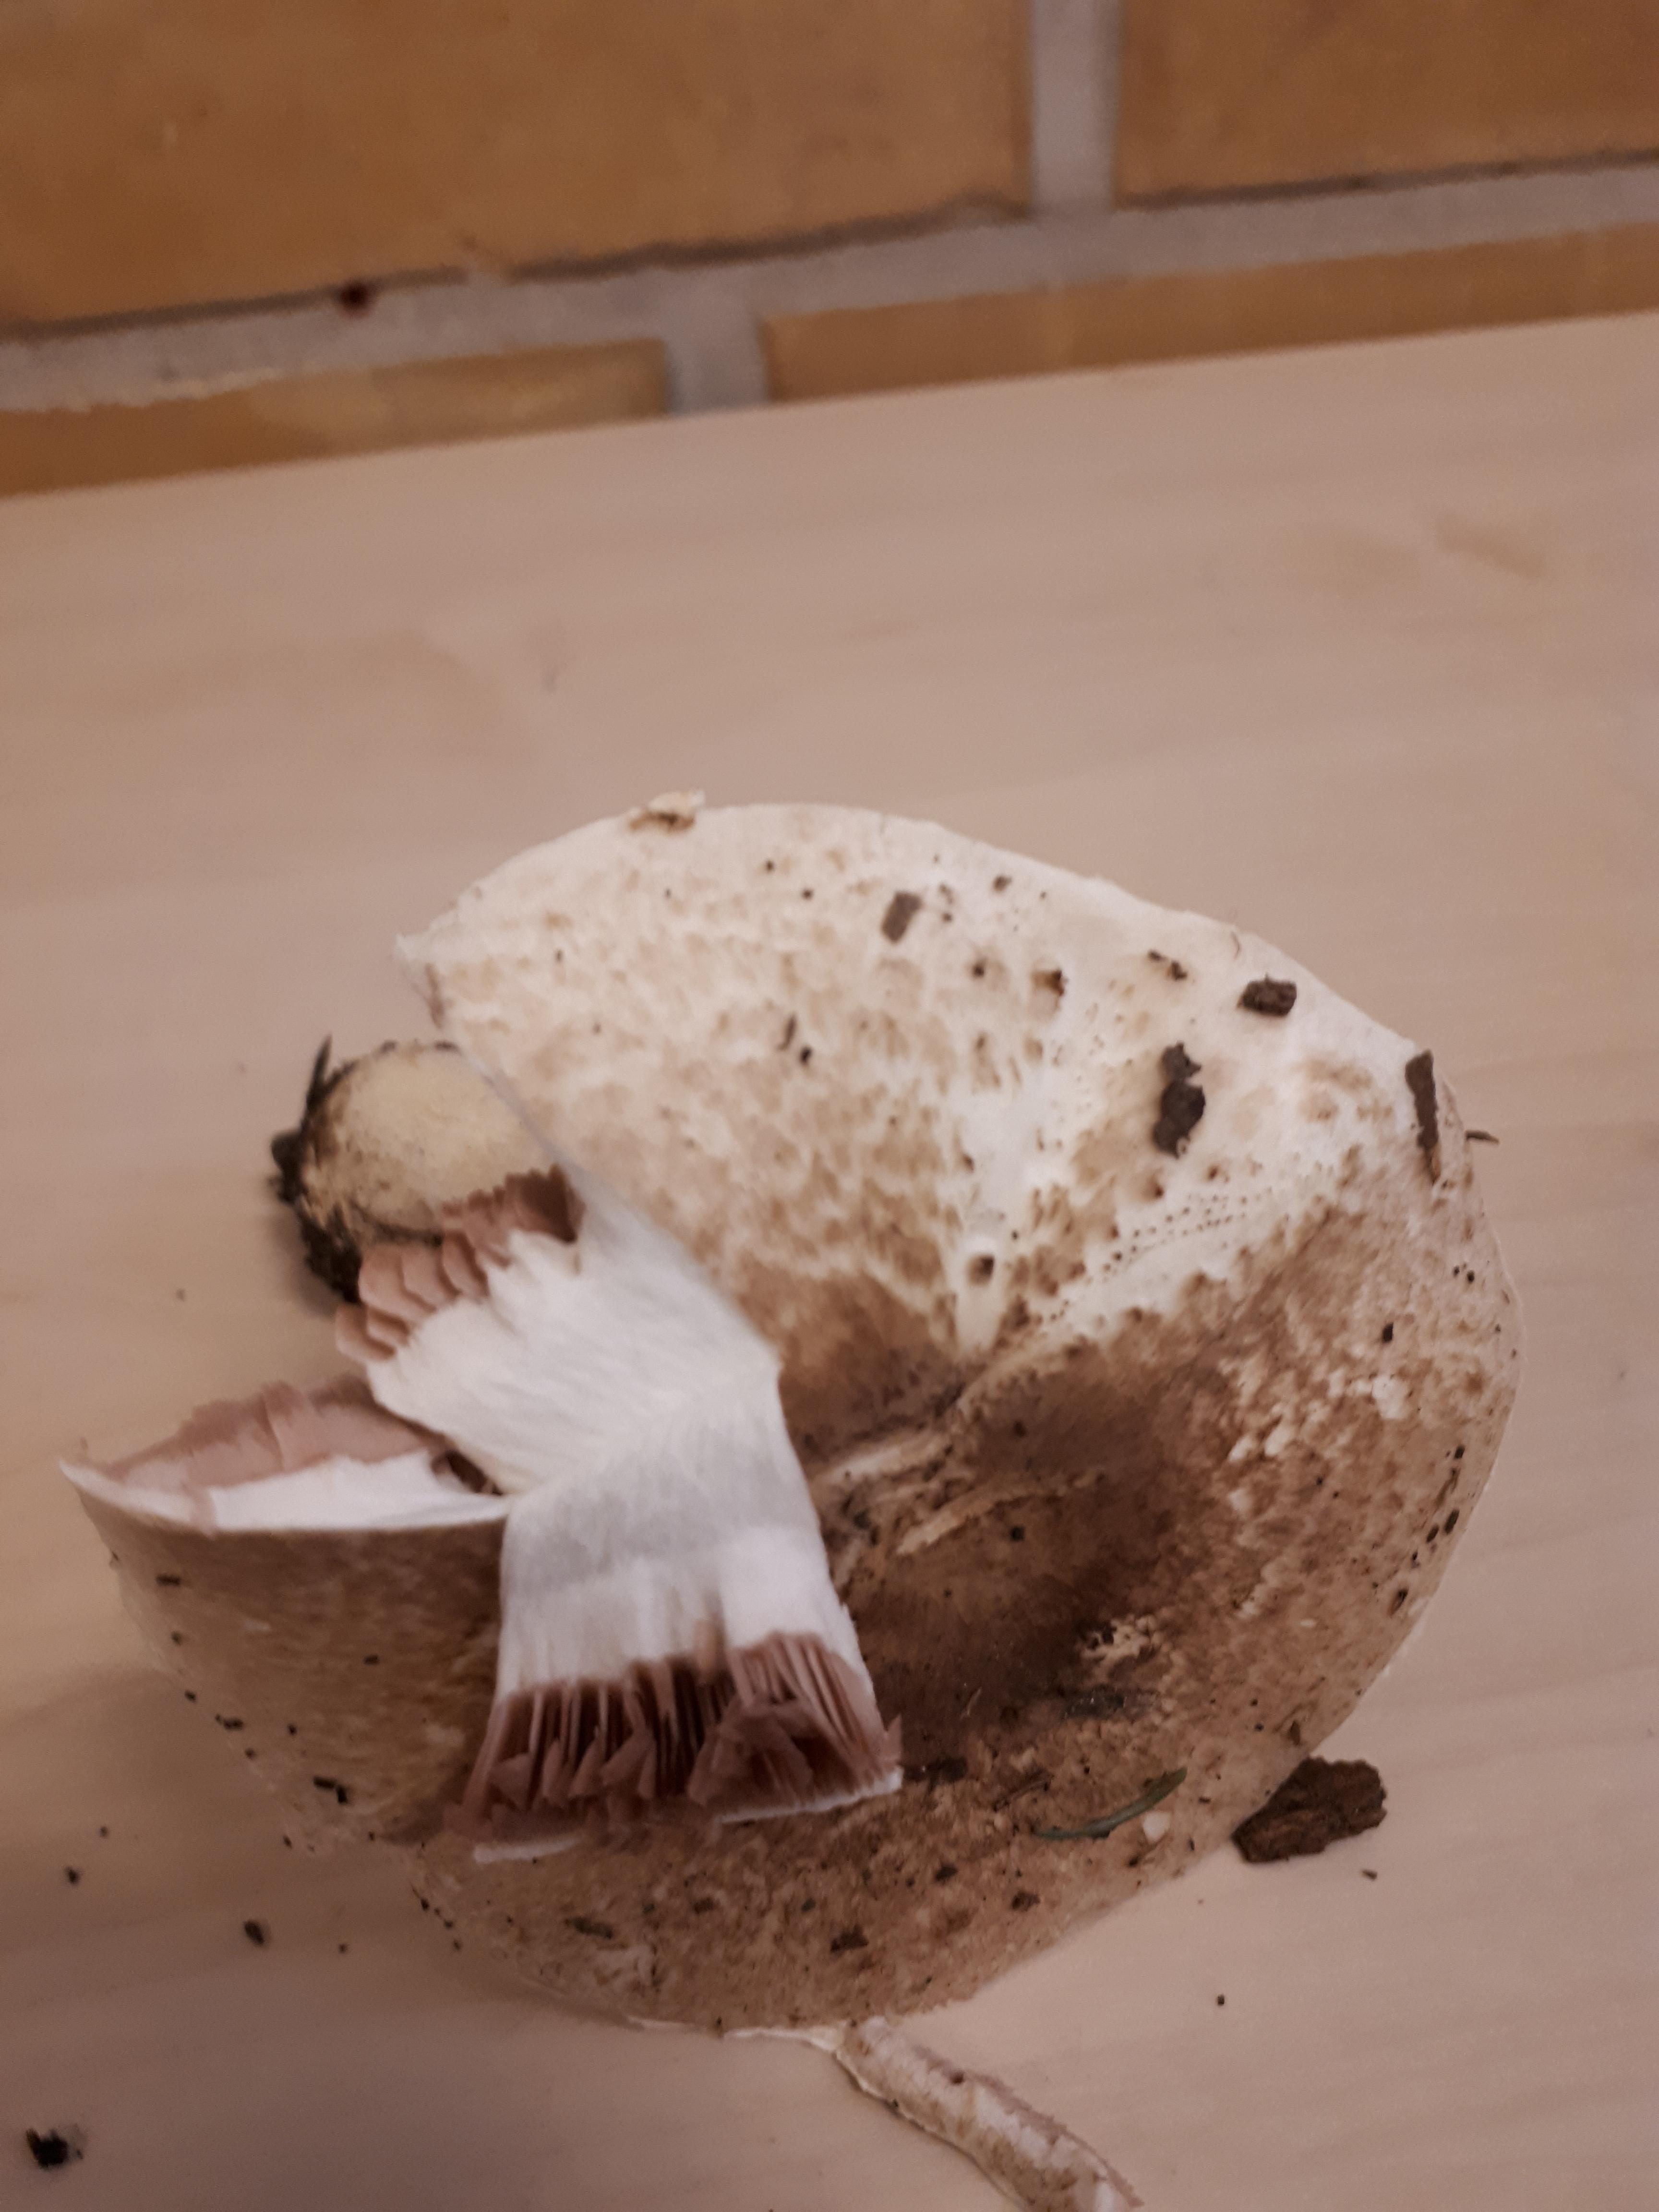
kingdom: Fungi
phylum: Basidiomycota
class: Agaricomycetes
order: Agaricales
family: Agaricaceae
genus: Agaricus
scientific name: Agaricus
